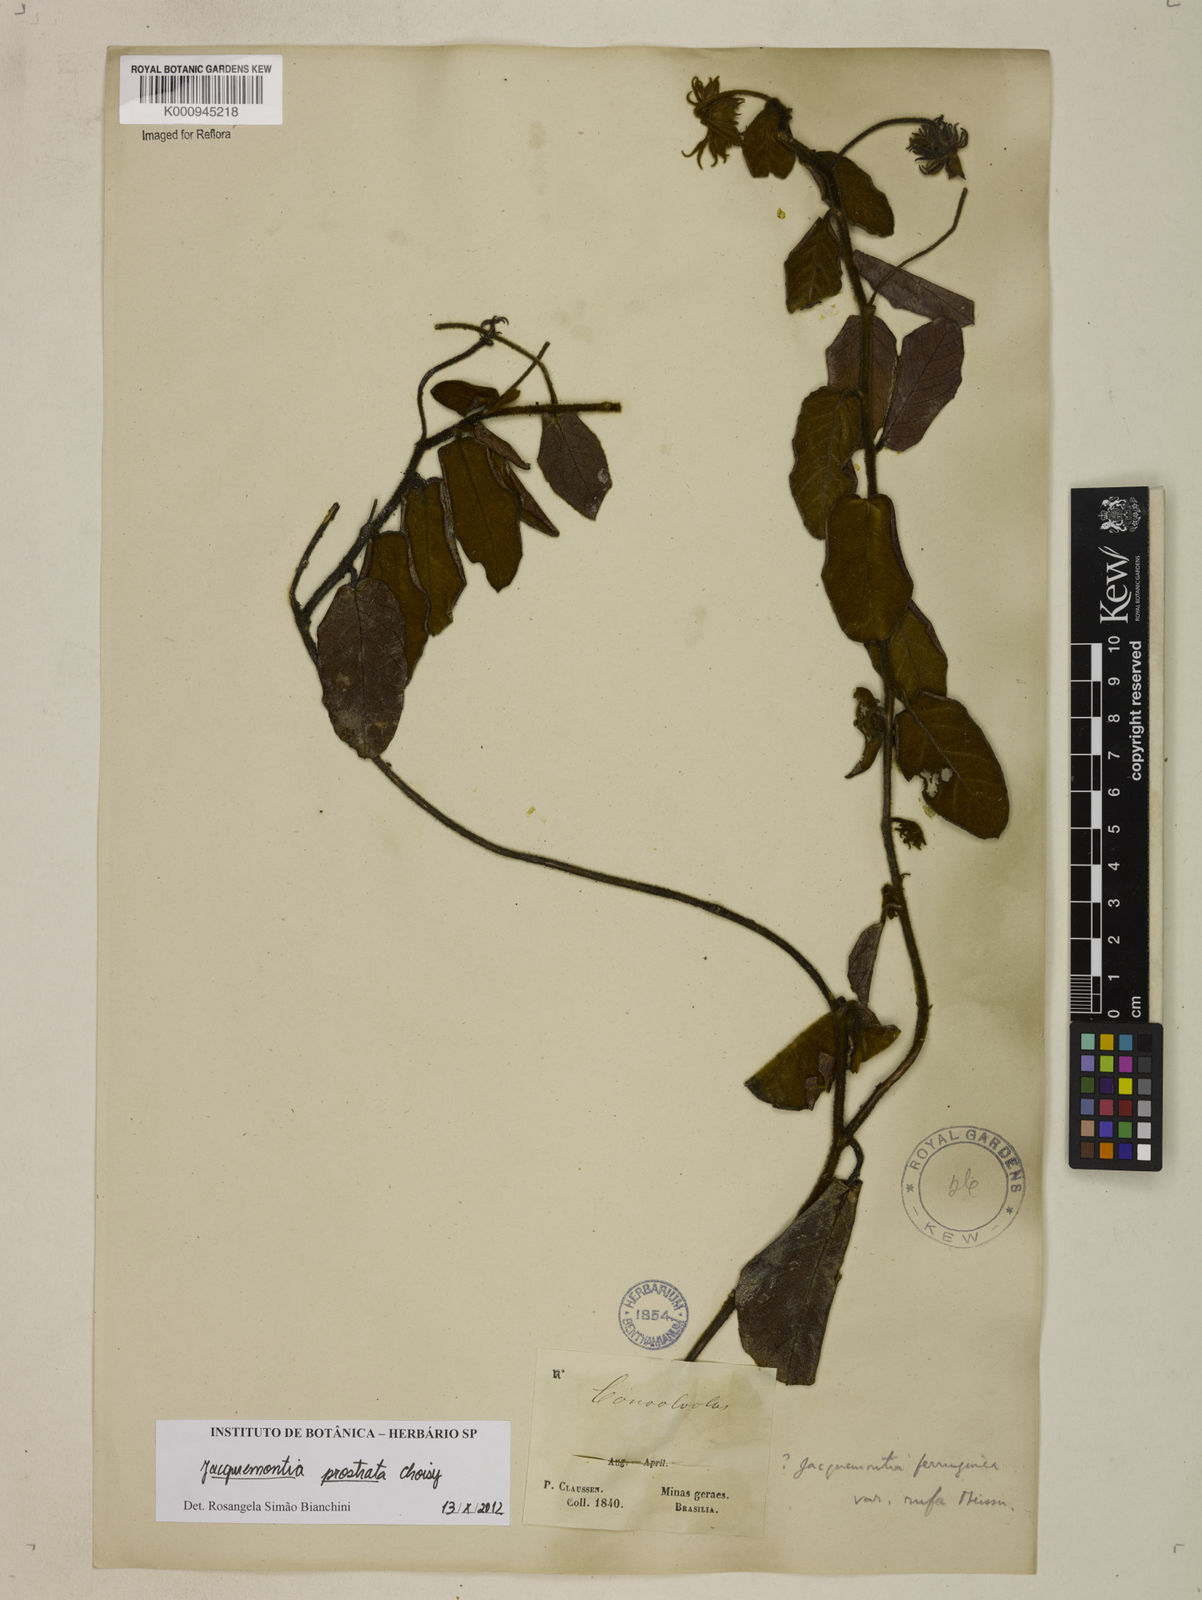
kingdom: Plantae
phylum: Tracheophyta
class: Magnoliopsida
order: Solanales
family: Convolvulaceae
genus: Jacquemontia
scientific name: Jacquemontia prostrata
